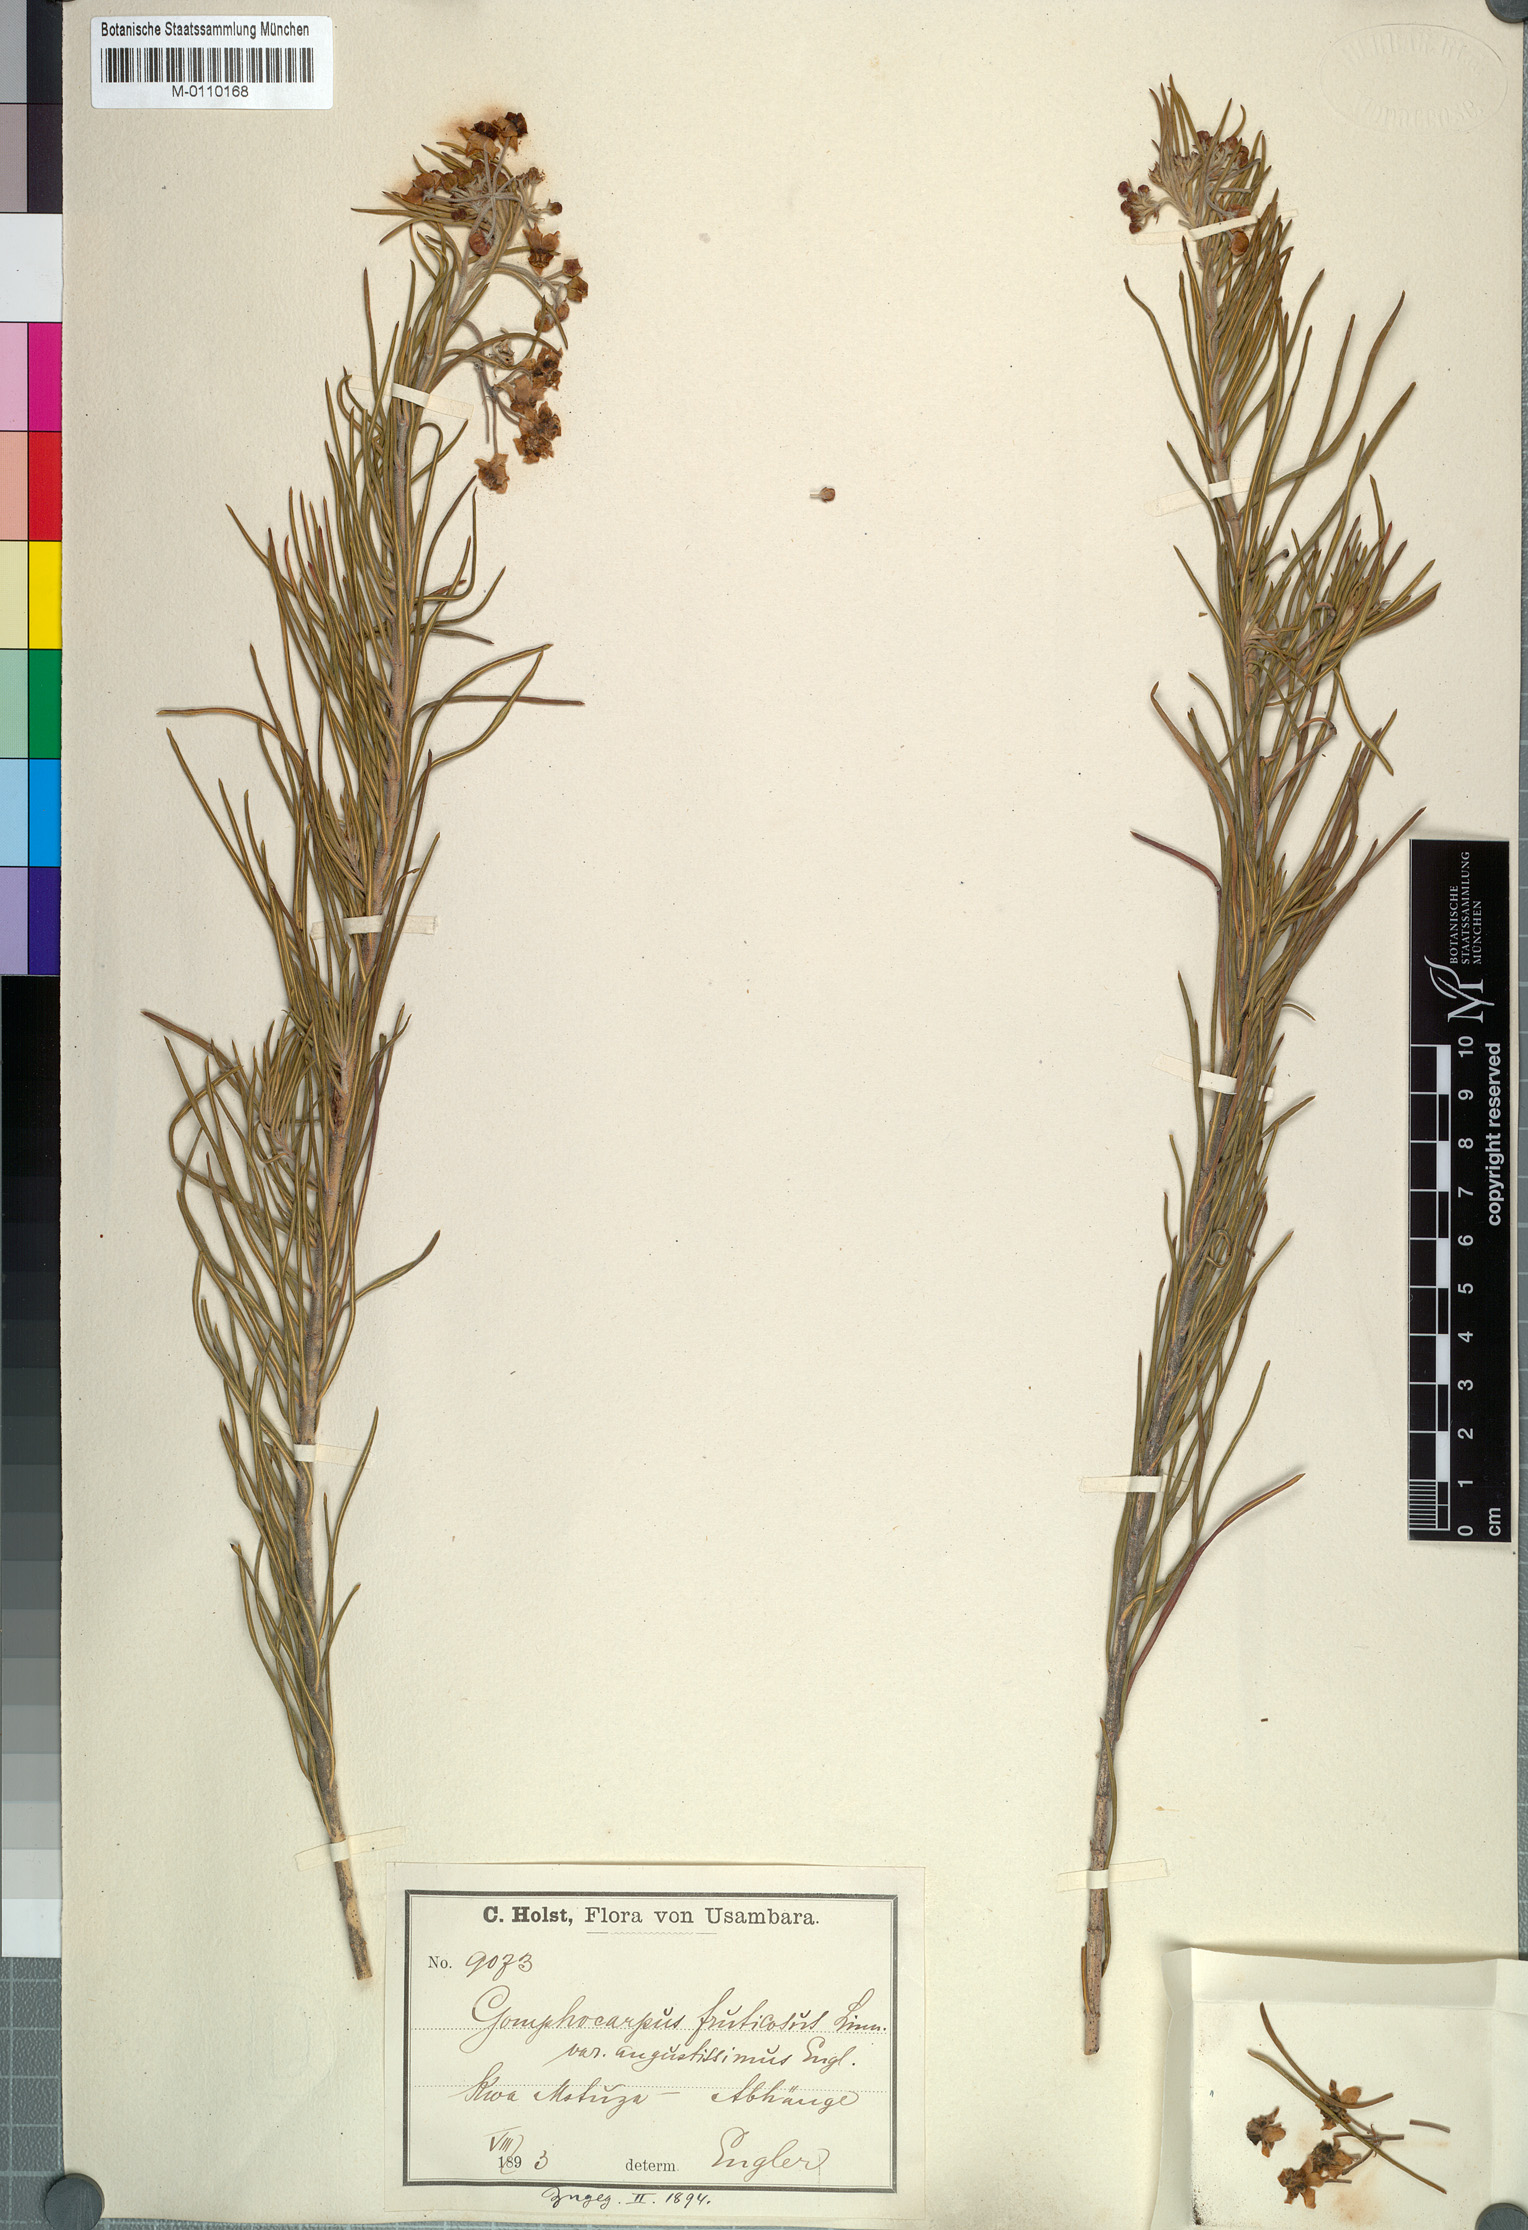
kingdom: Plantae
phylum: Tracheophyta
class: Magnoliopsida
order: Gentianales
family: Apocynaceae
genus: Gomphocarpus
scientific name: Gomphocarpus phillipsiae
